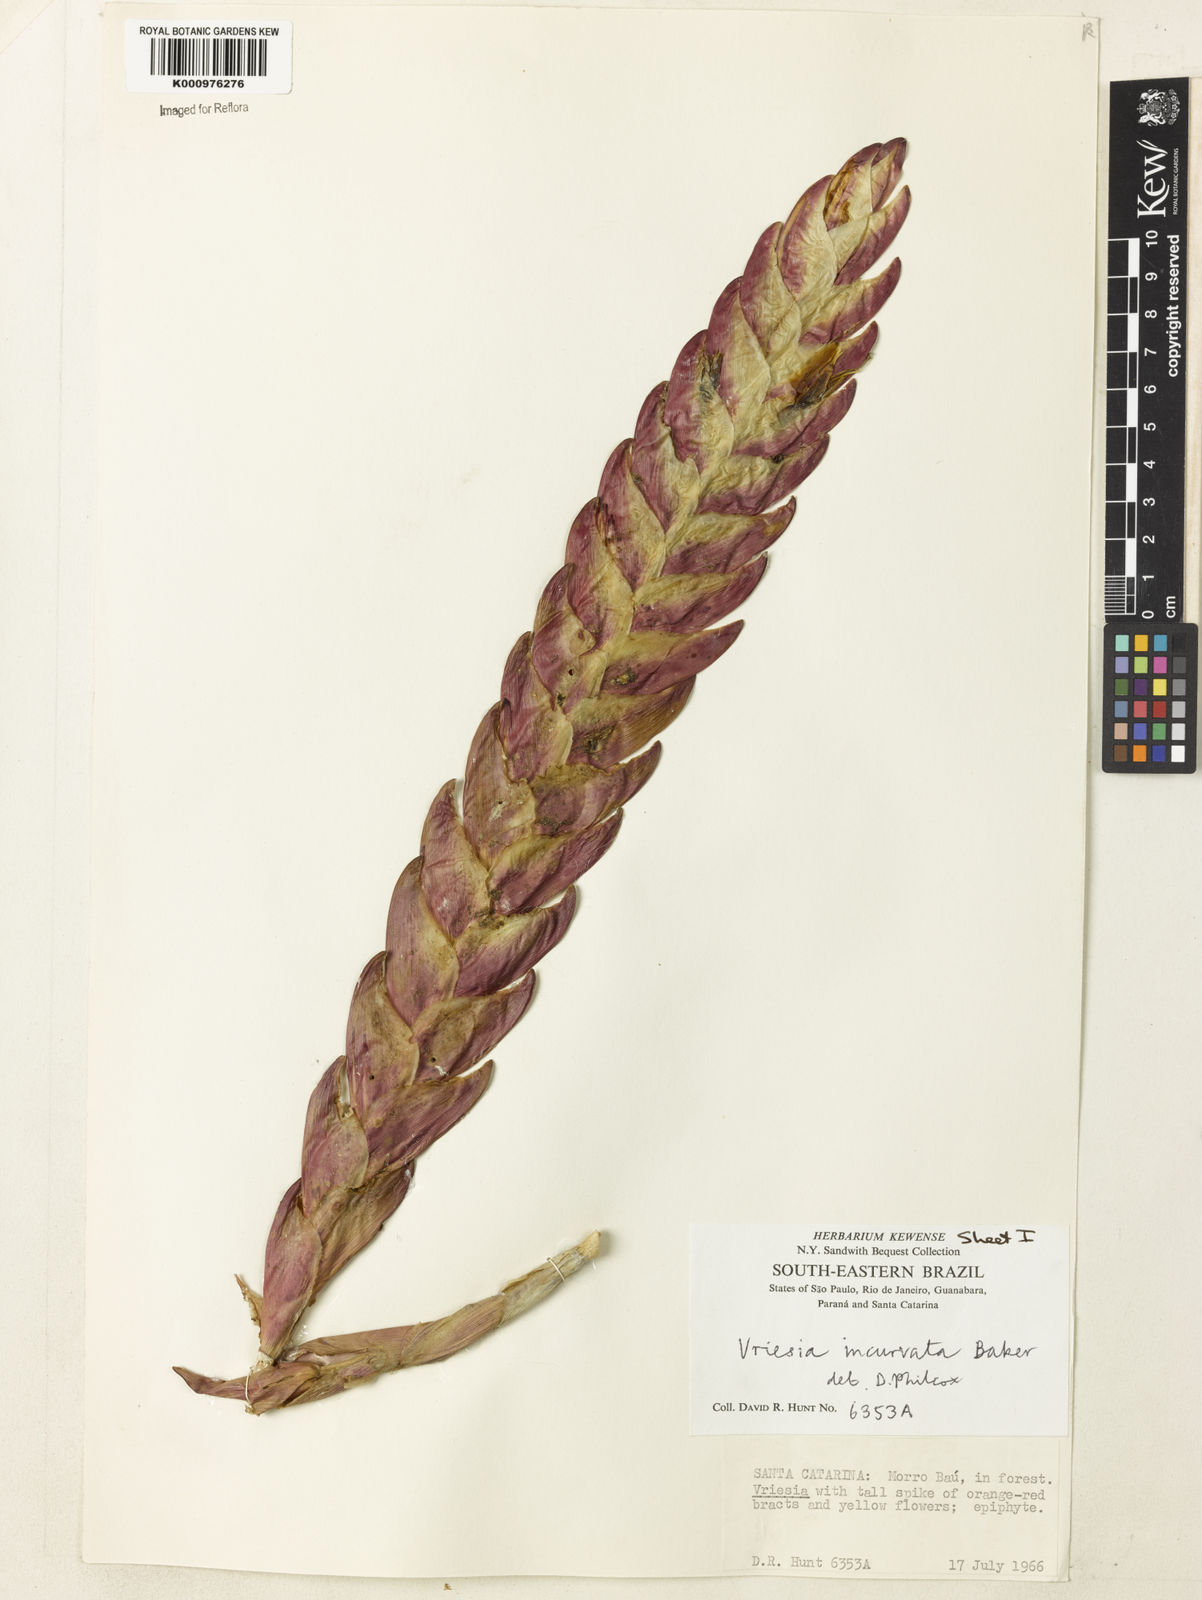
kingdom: Plantae
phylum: Tracheophyta
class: Liliopsida
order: Poales
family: Bromeliaceae
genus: Vriesea
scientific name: Vriesea incurvata
